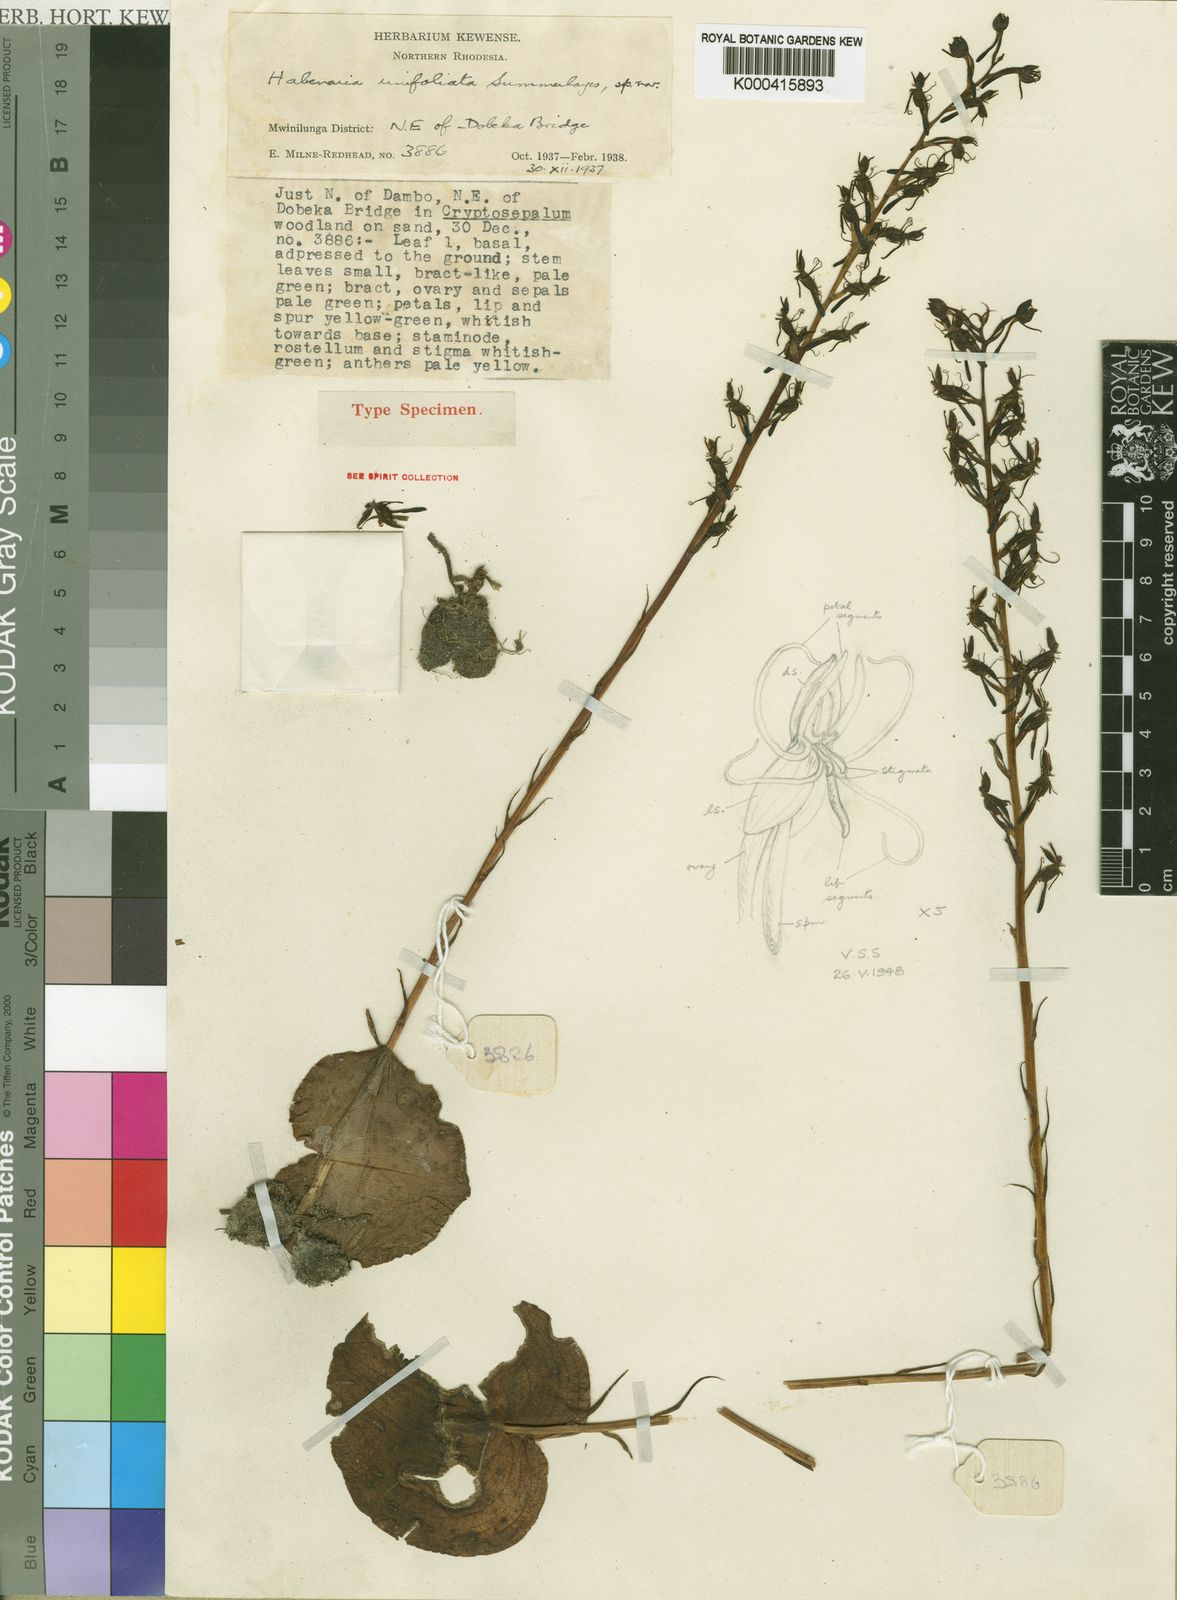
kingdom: Plantae
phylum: Tracheophyta
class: Liliopsida
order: Asparagales
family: Orchidaceae
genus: Habenaria
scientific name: Habenaria unifoliata
